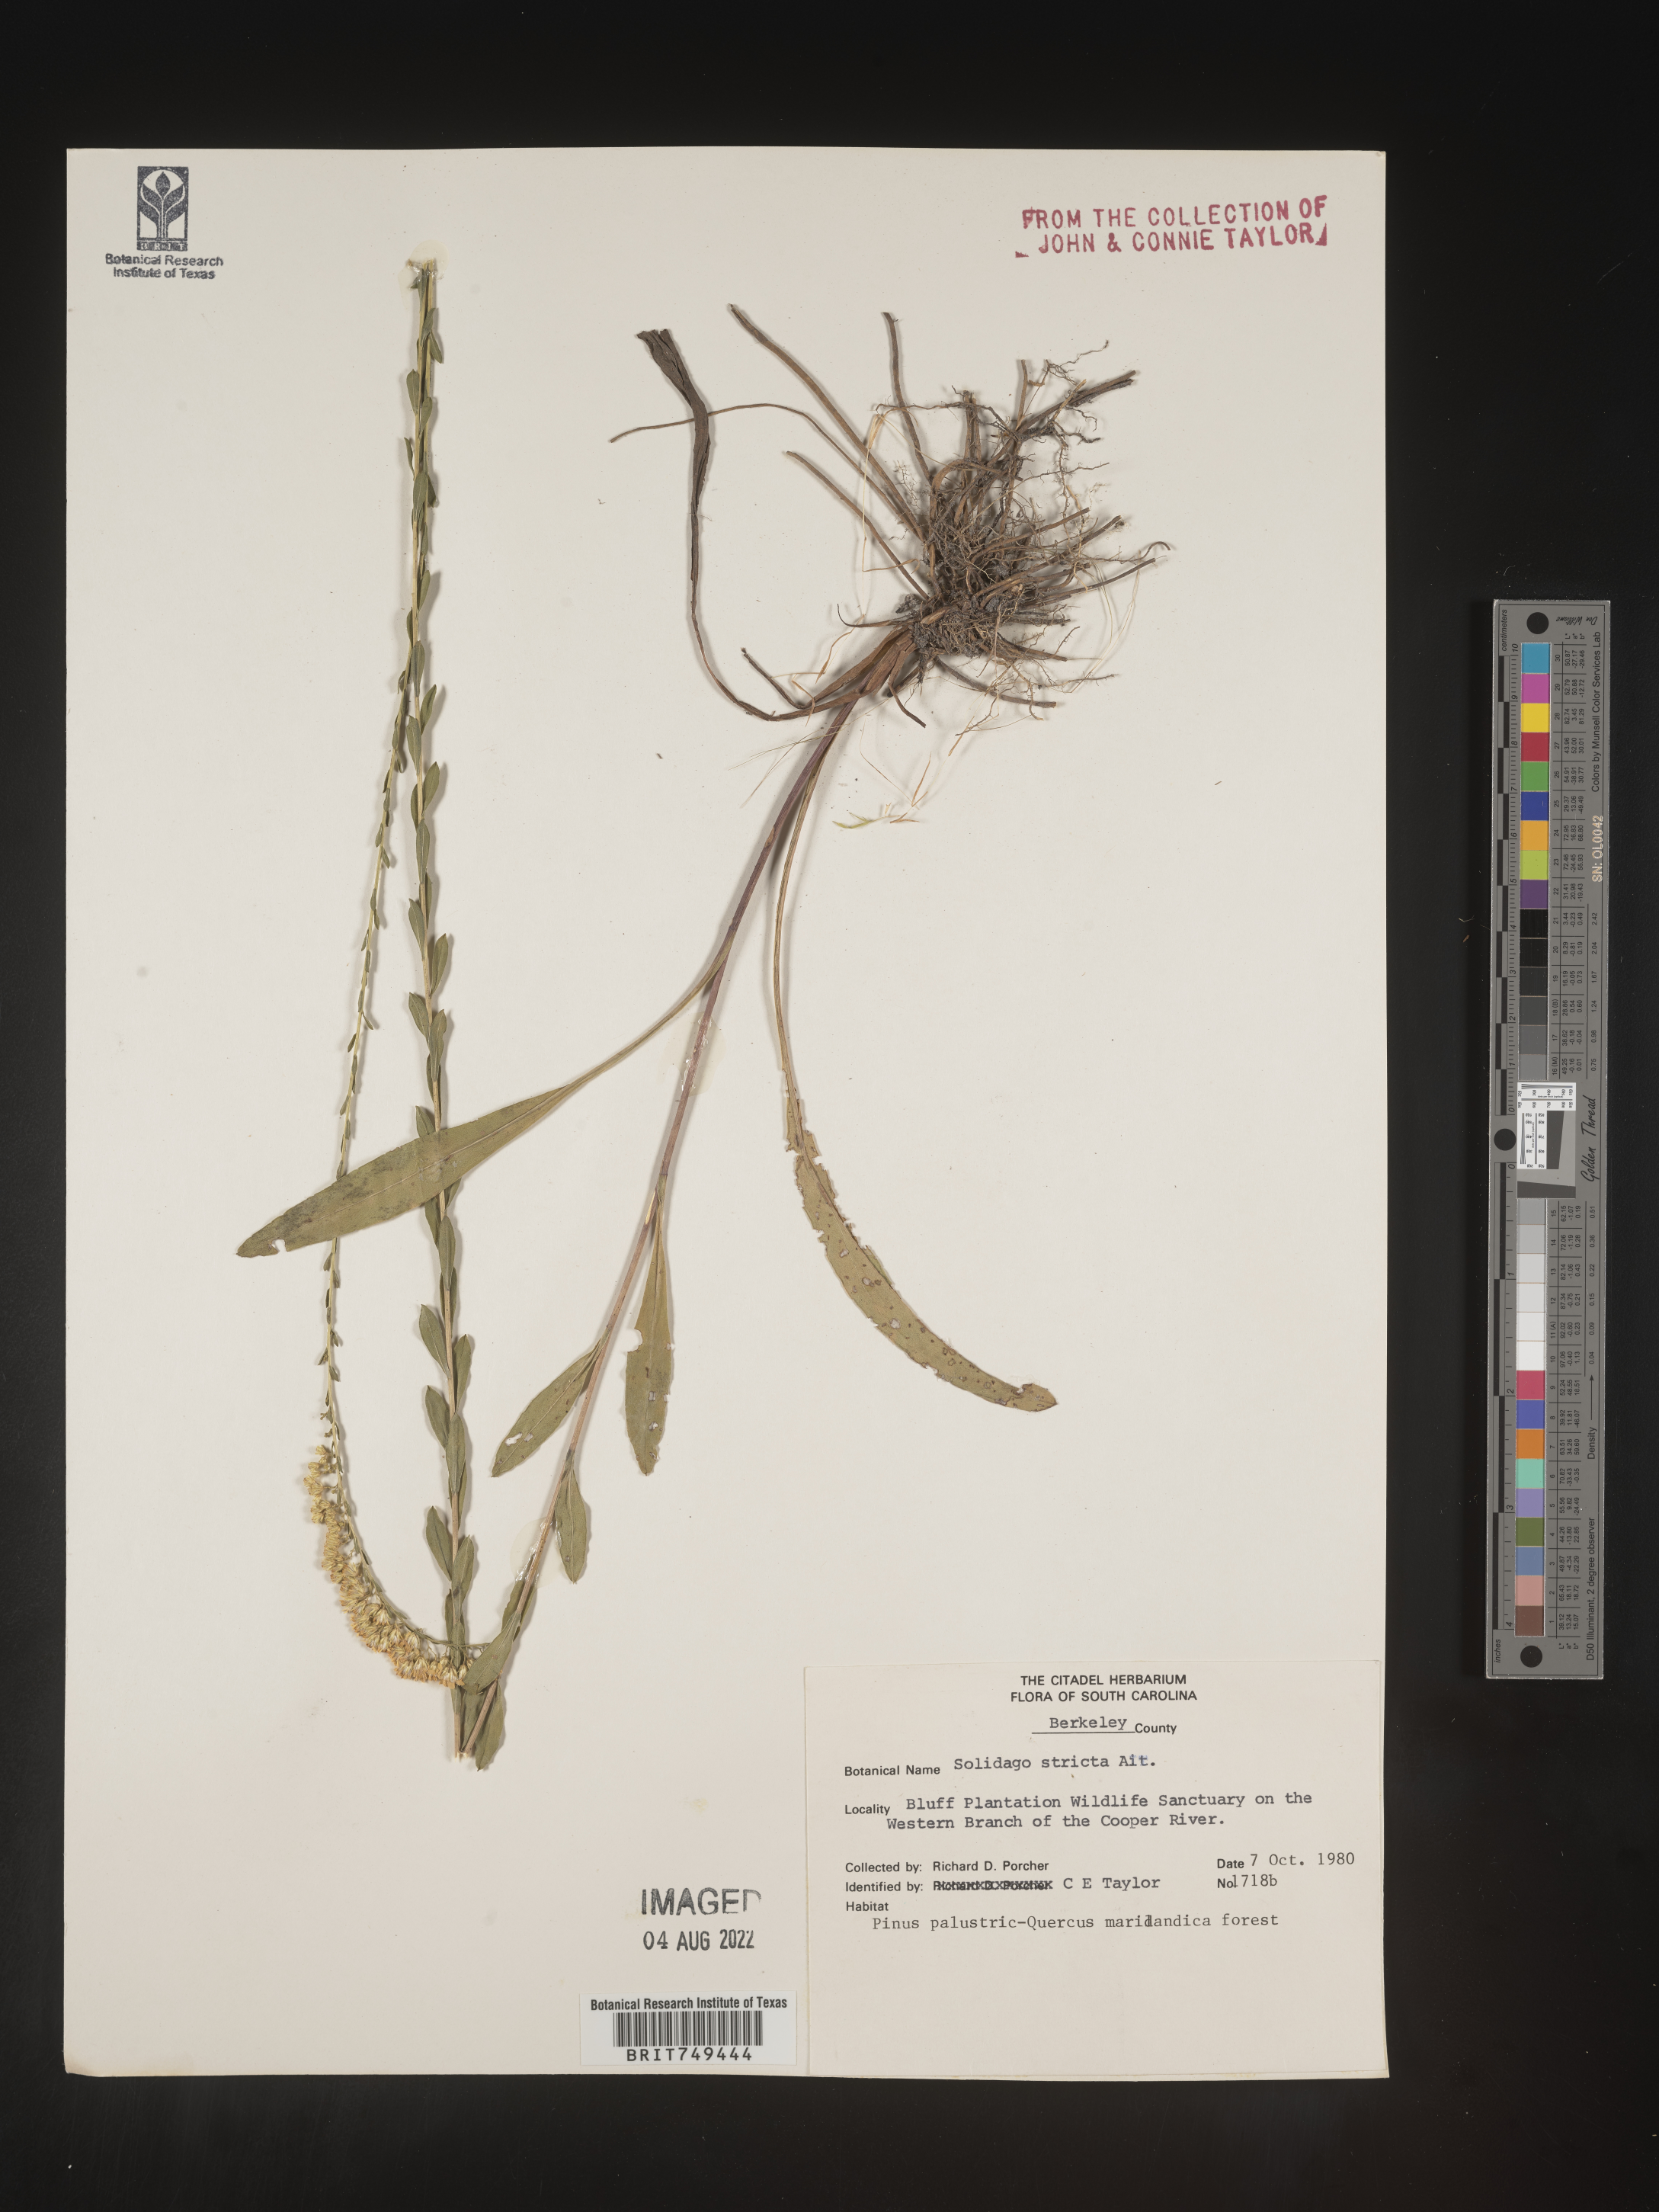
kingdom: Plantae
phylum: Tracheophyta
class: Magnoliopsida
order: Asterales
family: Asteraceae
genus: Solidago
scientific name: Solidago stricta
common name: Pine barren bog goldenrod
